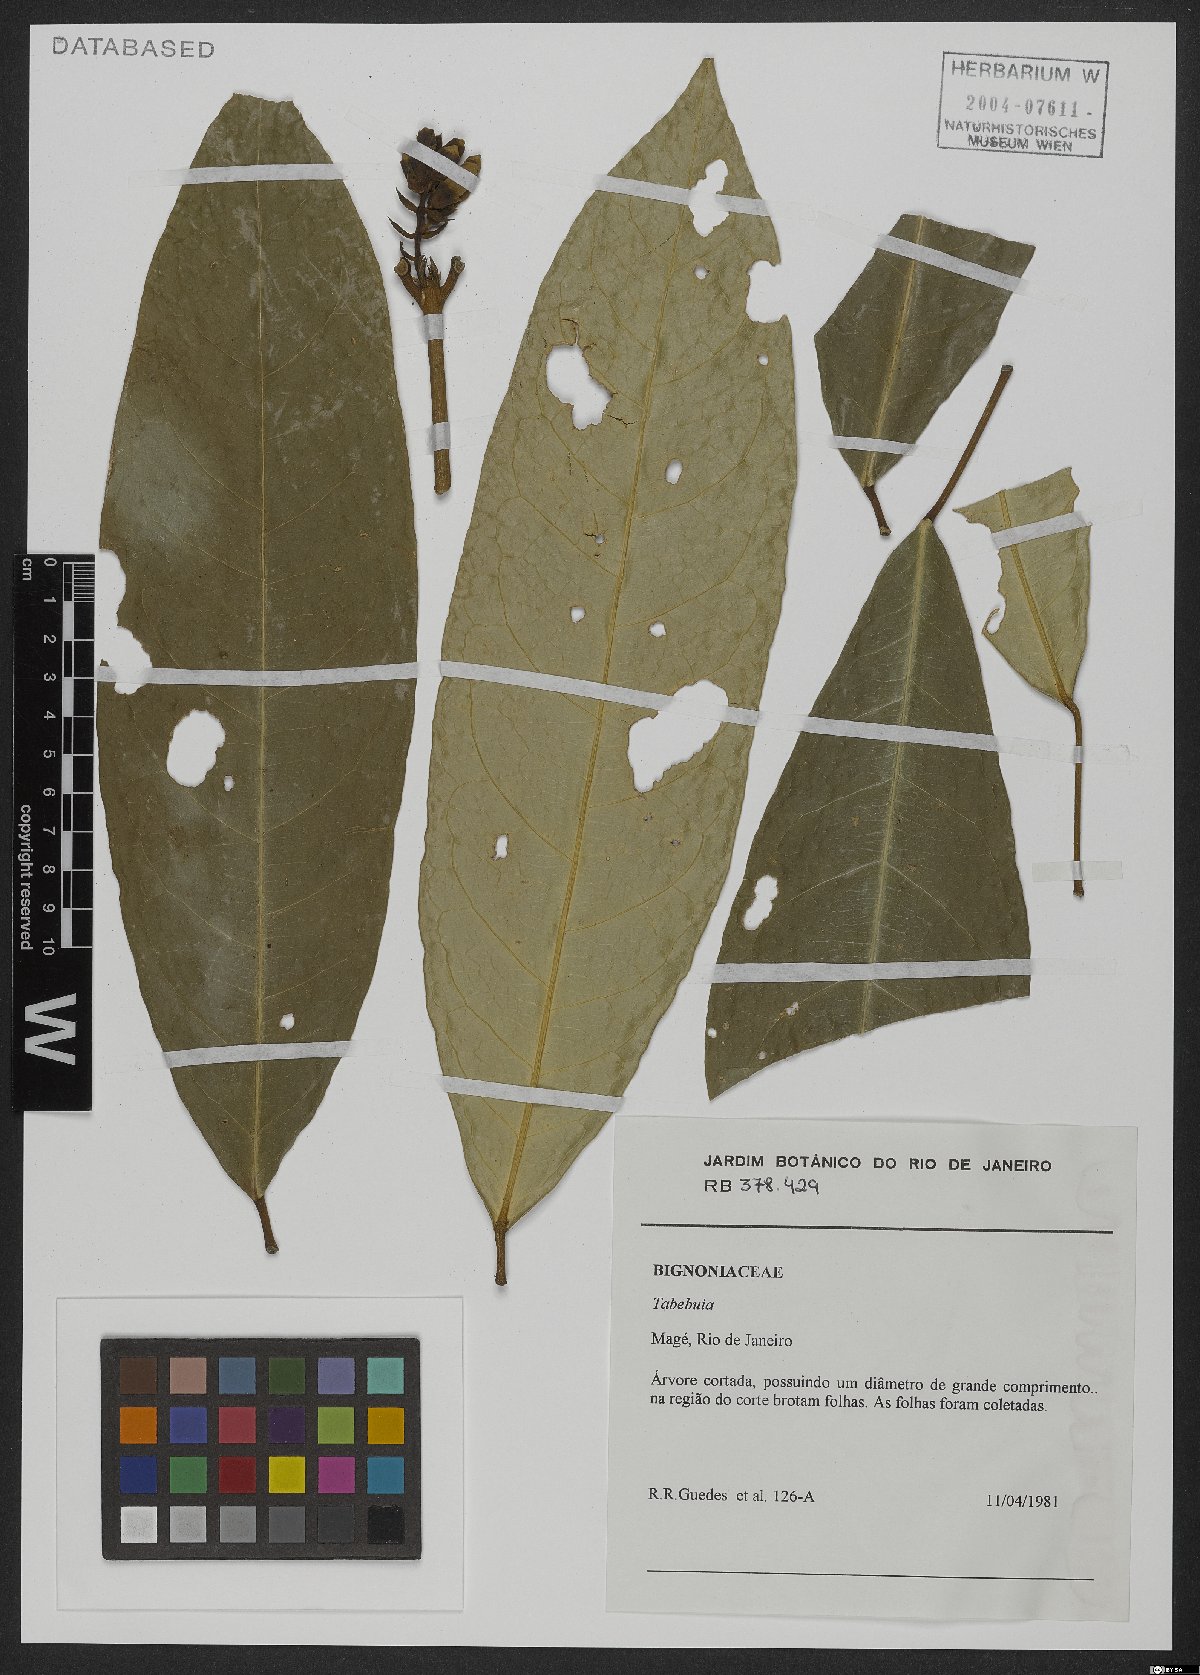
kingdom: Plantae
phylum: Tracheophyta
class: Magnoliopsida
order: Lamiales
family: Bignoniaceae
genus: Tabebuia
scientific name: Tabebuia
